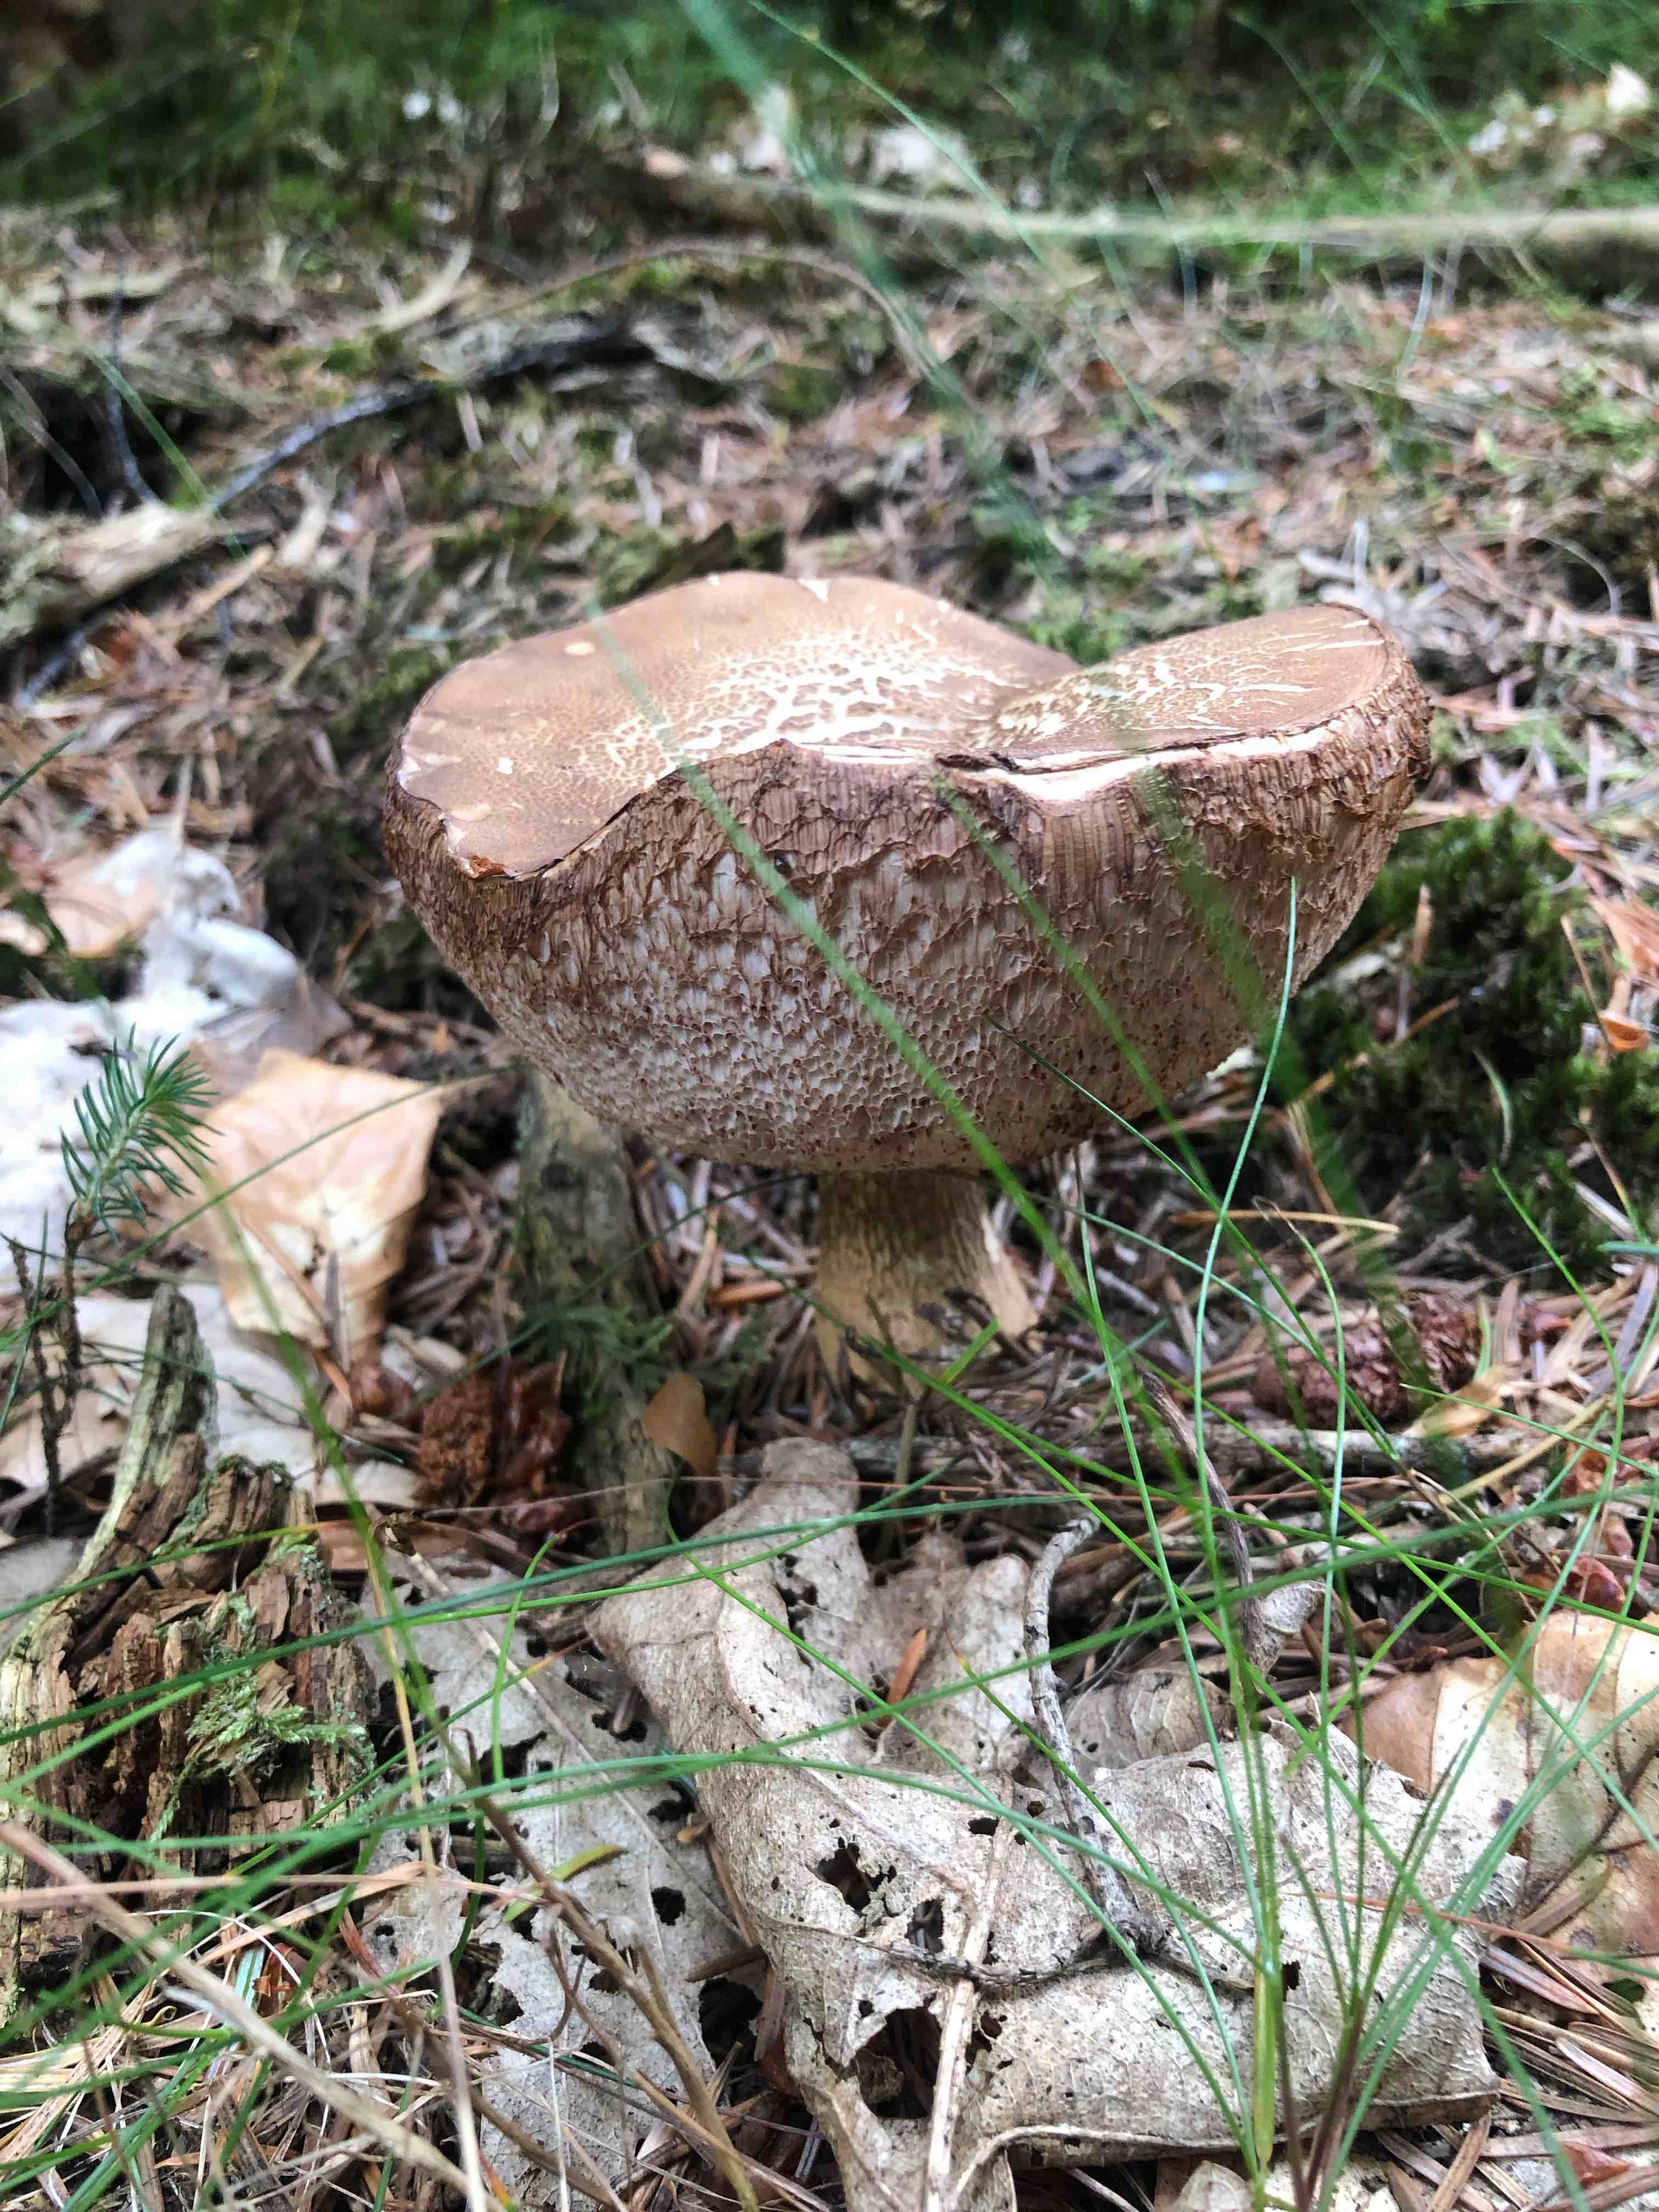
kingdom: Fungi
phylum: Basidiomycota
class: Agaricomycetes
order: Boletales
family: Boletaceae
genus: Tylopilus
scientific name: Tylopilus felleus
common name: galderørhat
